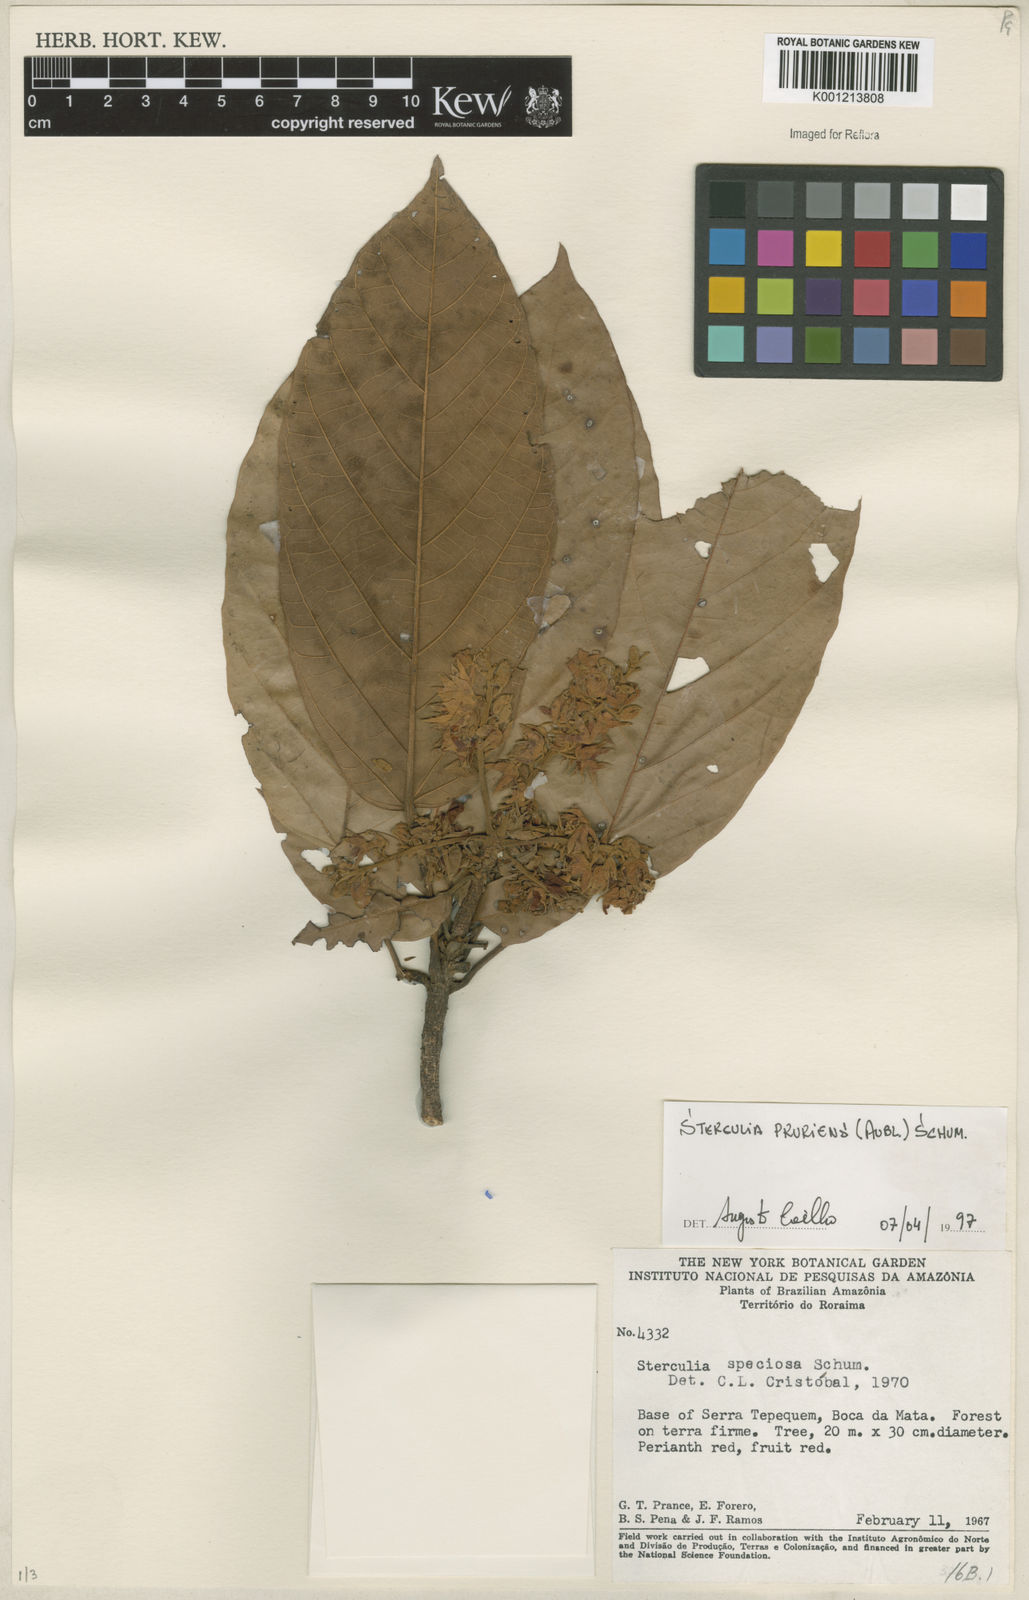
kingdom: Plantae
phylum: Tracheophyta
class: Magnoliopsida
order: Malvales
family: Malvaceae
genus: Sterculia
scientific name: Sterculia pruriens
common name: Grand mahot
